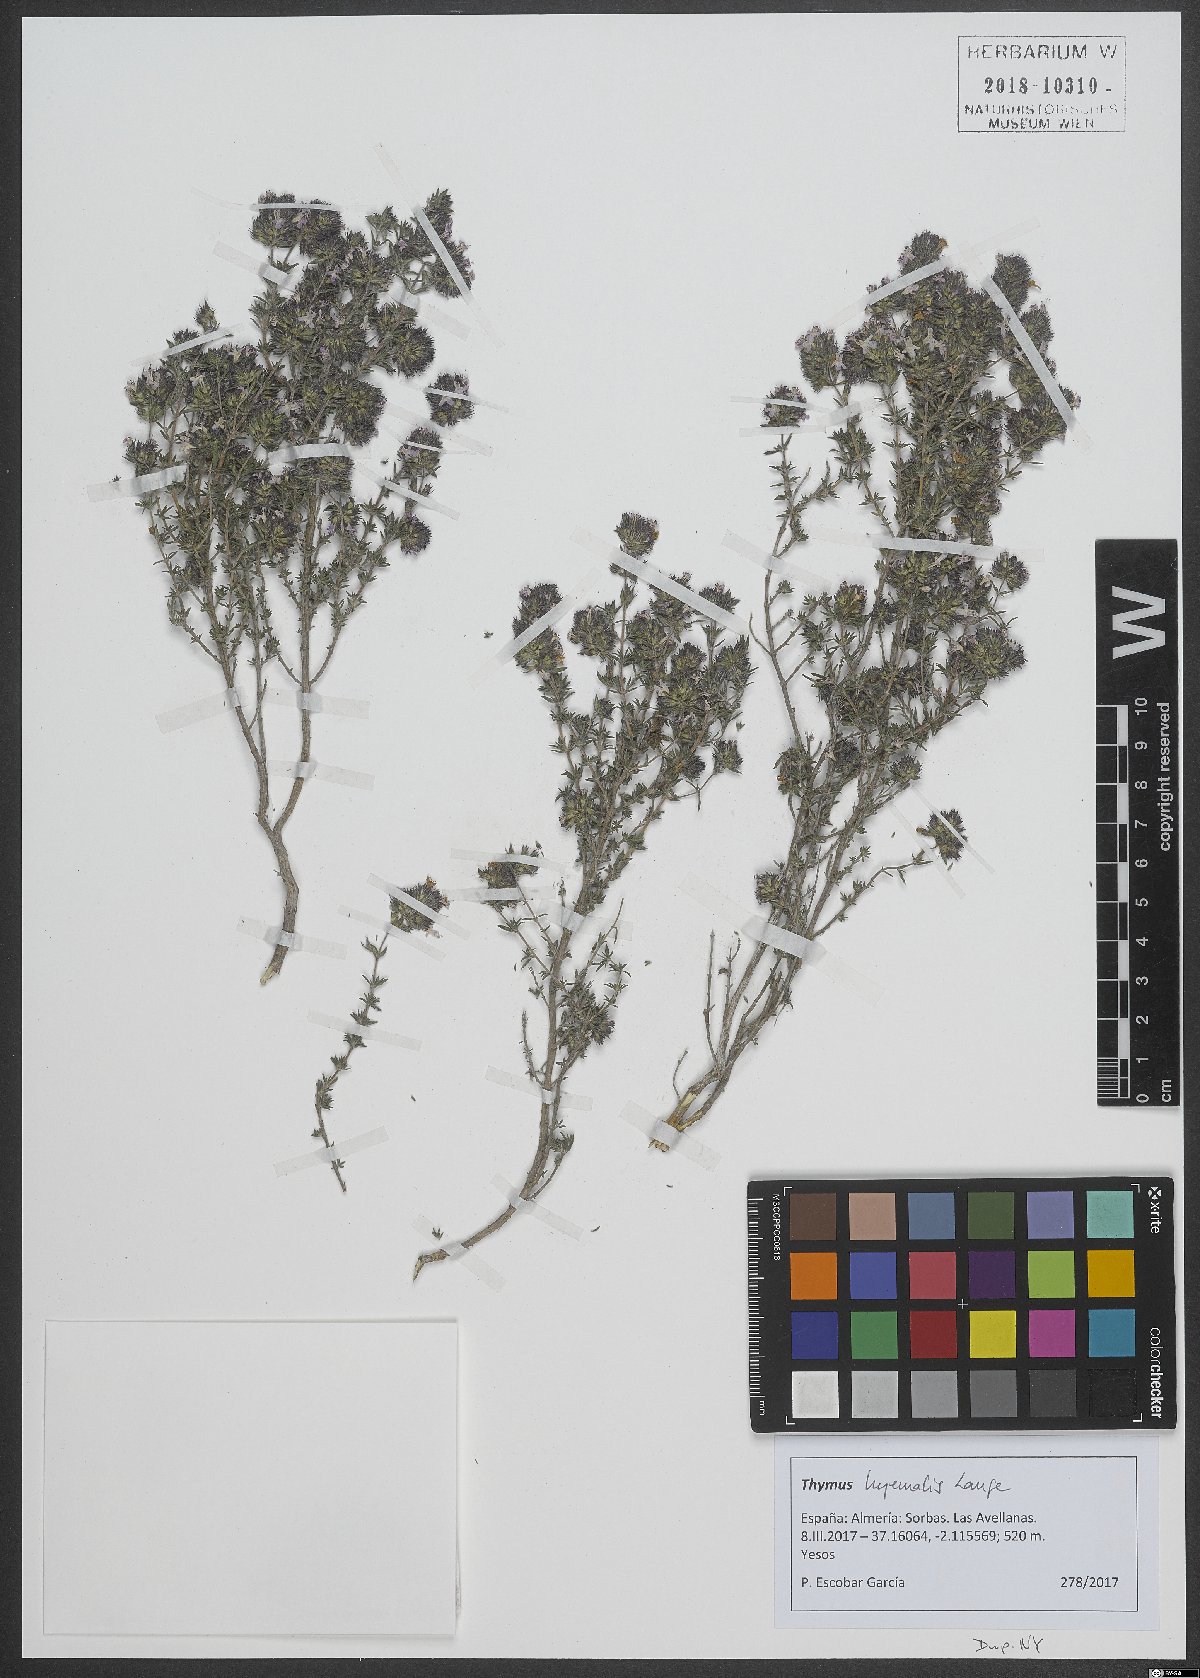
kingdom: Plantae
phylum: Tracheophyta
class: Magnoliopsida
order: Lamiales
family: Lamiaceae
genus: Thymus
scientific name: Thymus hyemalis
